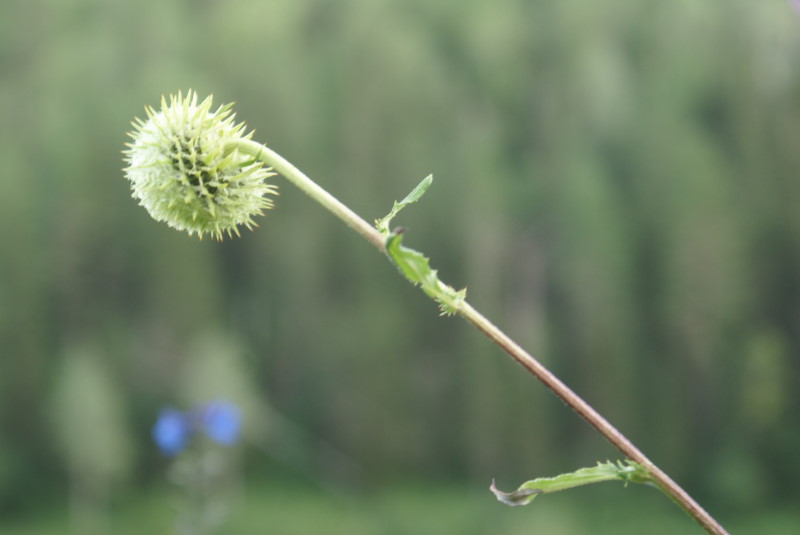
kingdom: Plantae
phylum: Tracheophyta
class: Magnoliopsida
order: Asterales
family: Asteraceae
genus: Alfredia
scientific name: Alfredia cernua
